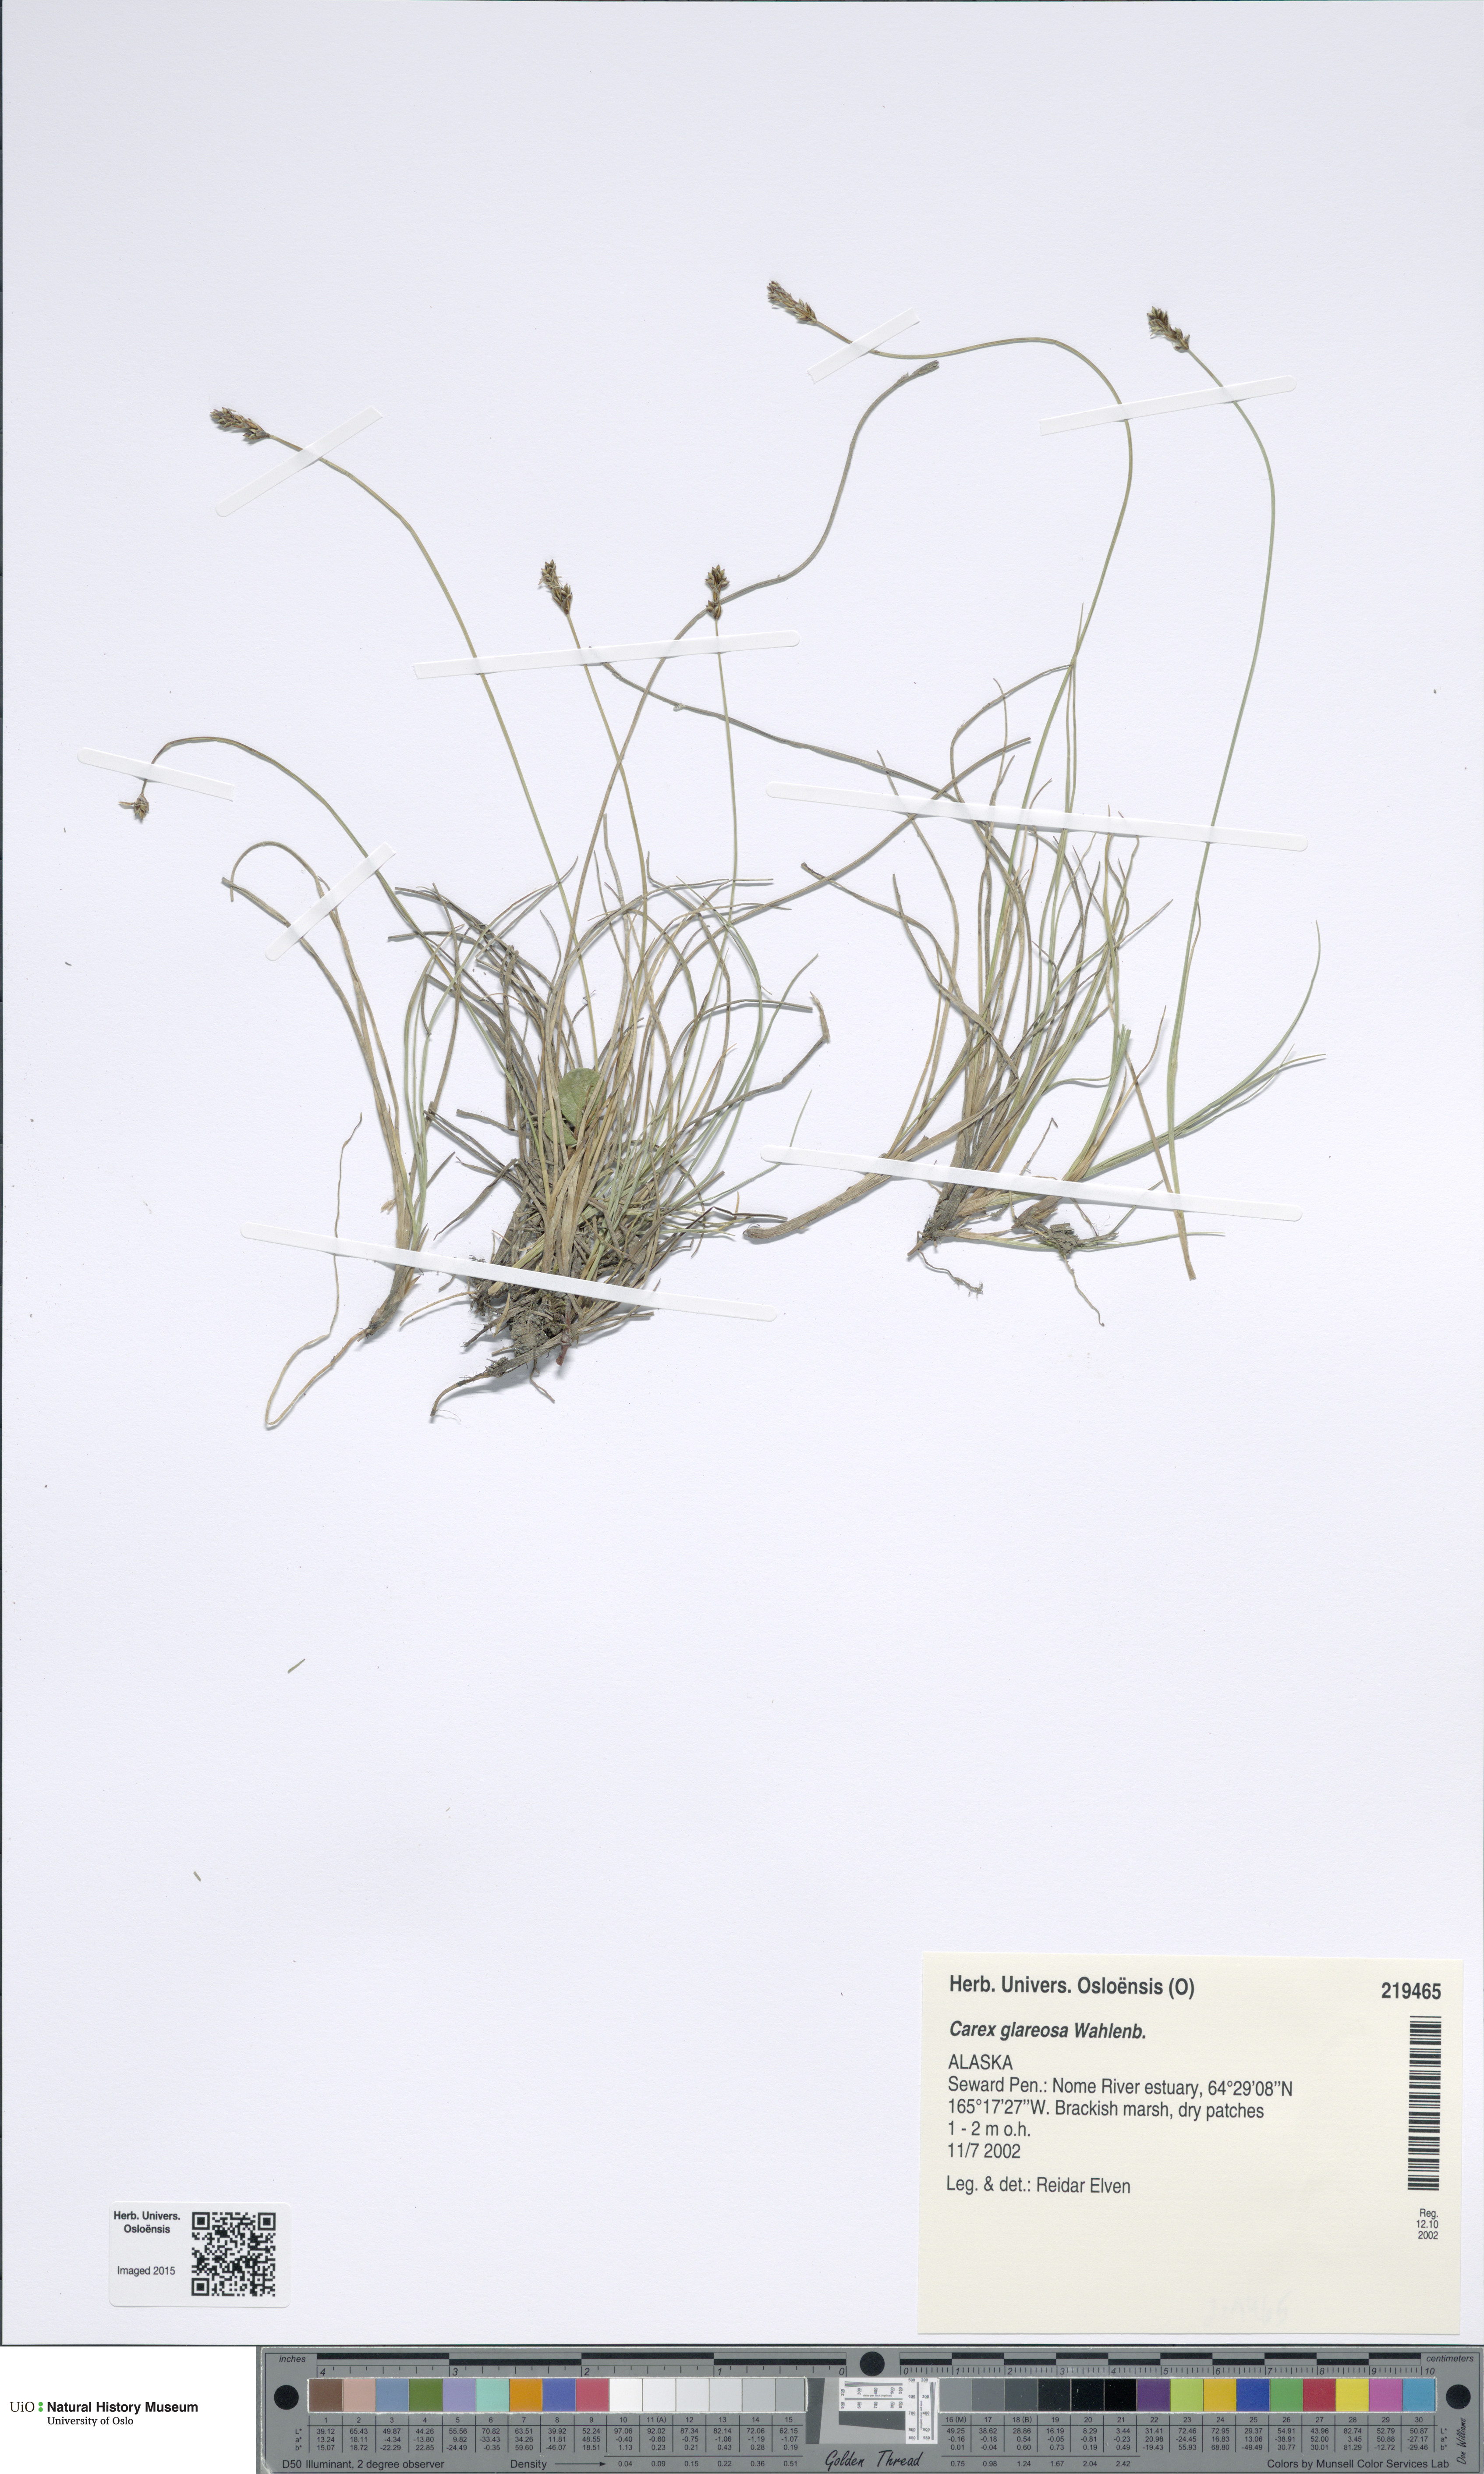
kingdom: Plantae
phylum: Tracheophyta
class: Liliopsida
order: Poales
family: Cyperaceae
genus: Carex
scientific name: Carex glareosa
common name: Clustered sedge
